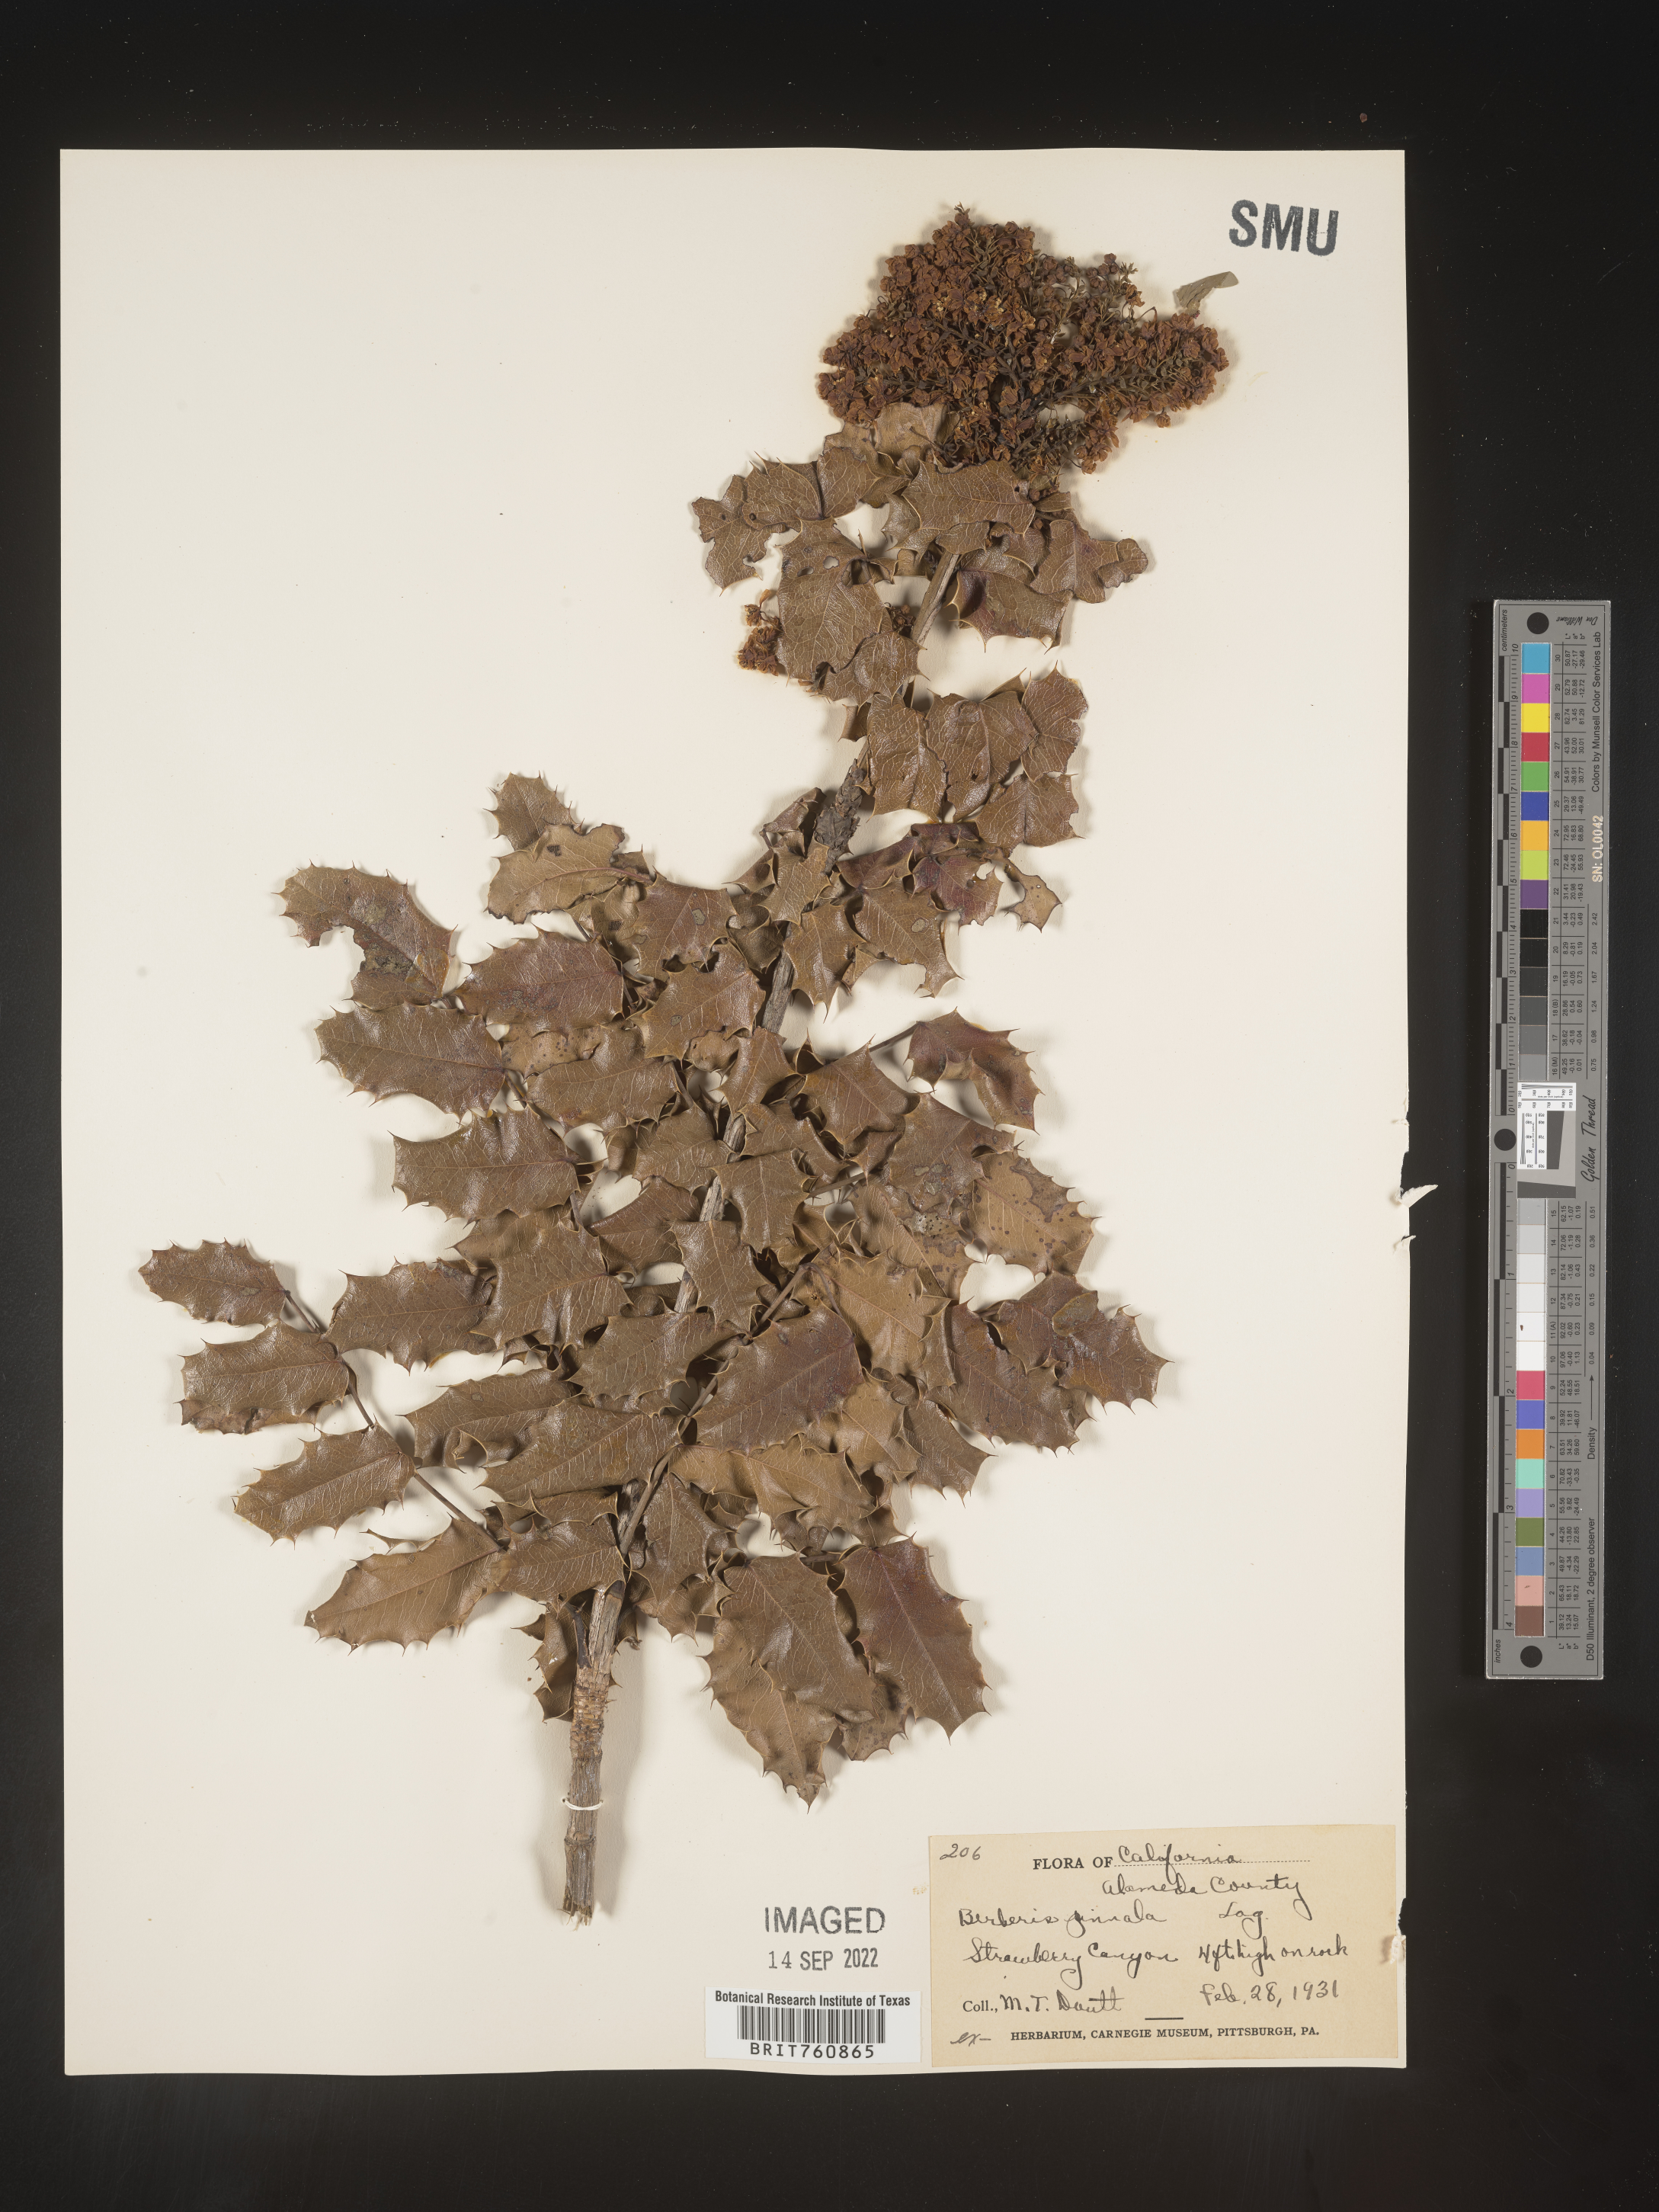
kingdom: Plantae
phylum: Tracheophyta
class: Magnoliopsida
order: Ranunculales
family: Berberidaceae
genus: Mahonia
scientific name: Mahonia
